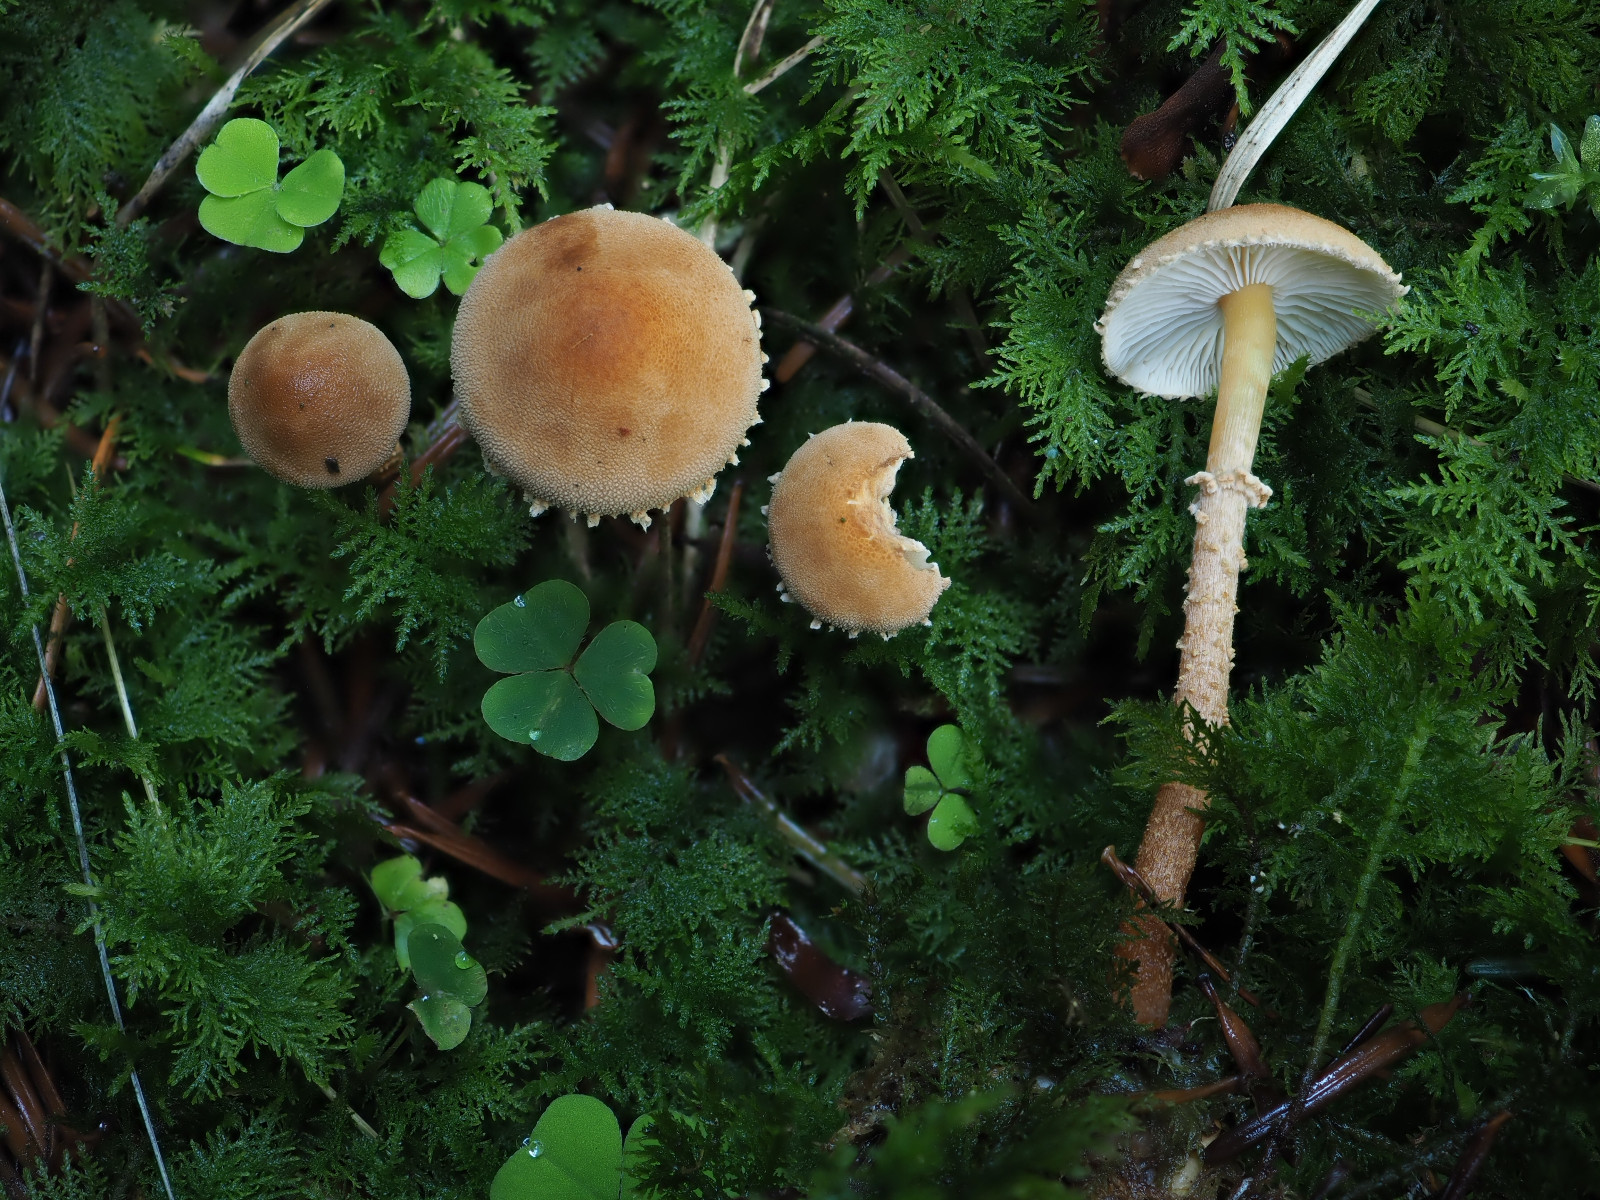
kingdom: Fungi
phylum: Basidiomycota
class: Agaricomycetes
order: Agaricales
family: Tricholomataceae
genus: Cystoderma
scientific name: Cystoderma amianthinum
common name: okkergul grynhat
